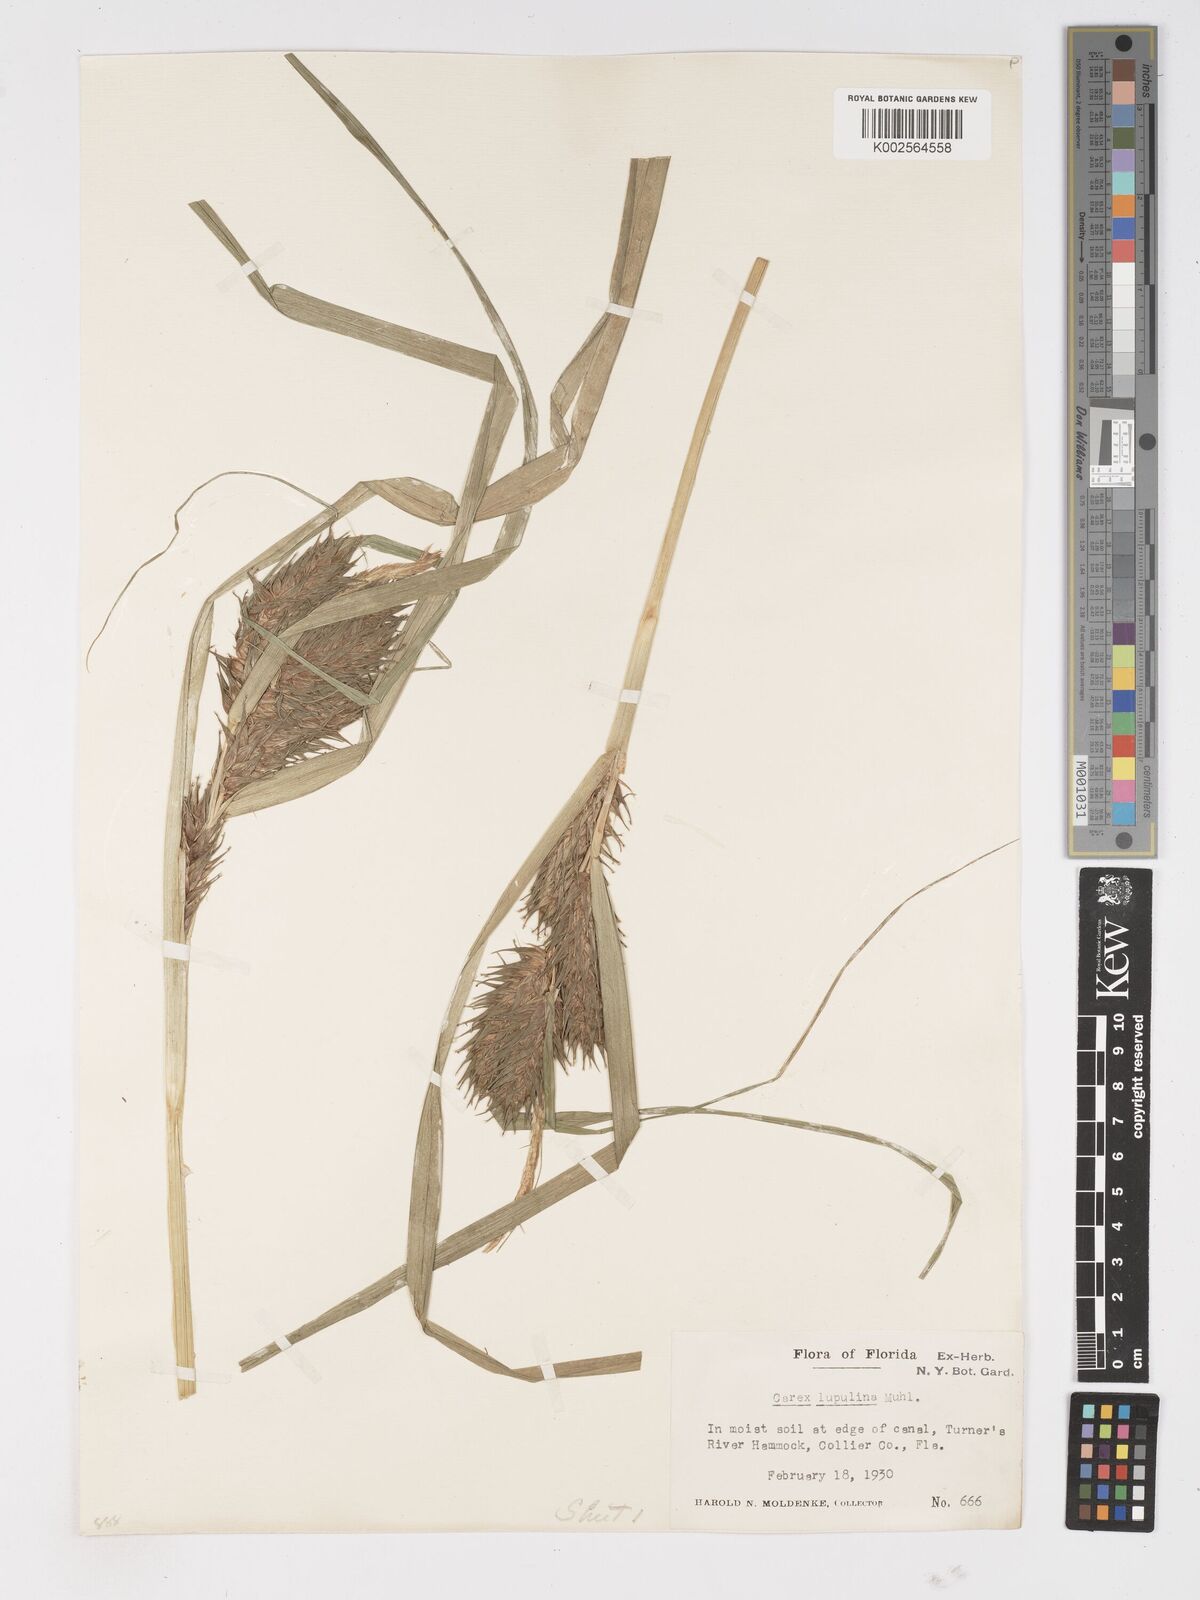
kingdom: Plantae
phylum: Tracheophyta
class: Liliopsida
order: Poales
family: Cyperaceae
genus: Carex
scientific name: Carex lupulina
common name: Hop sedge
